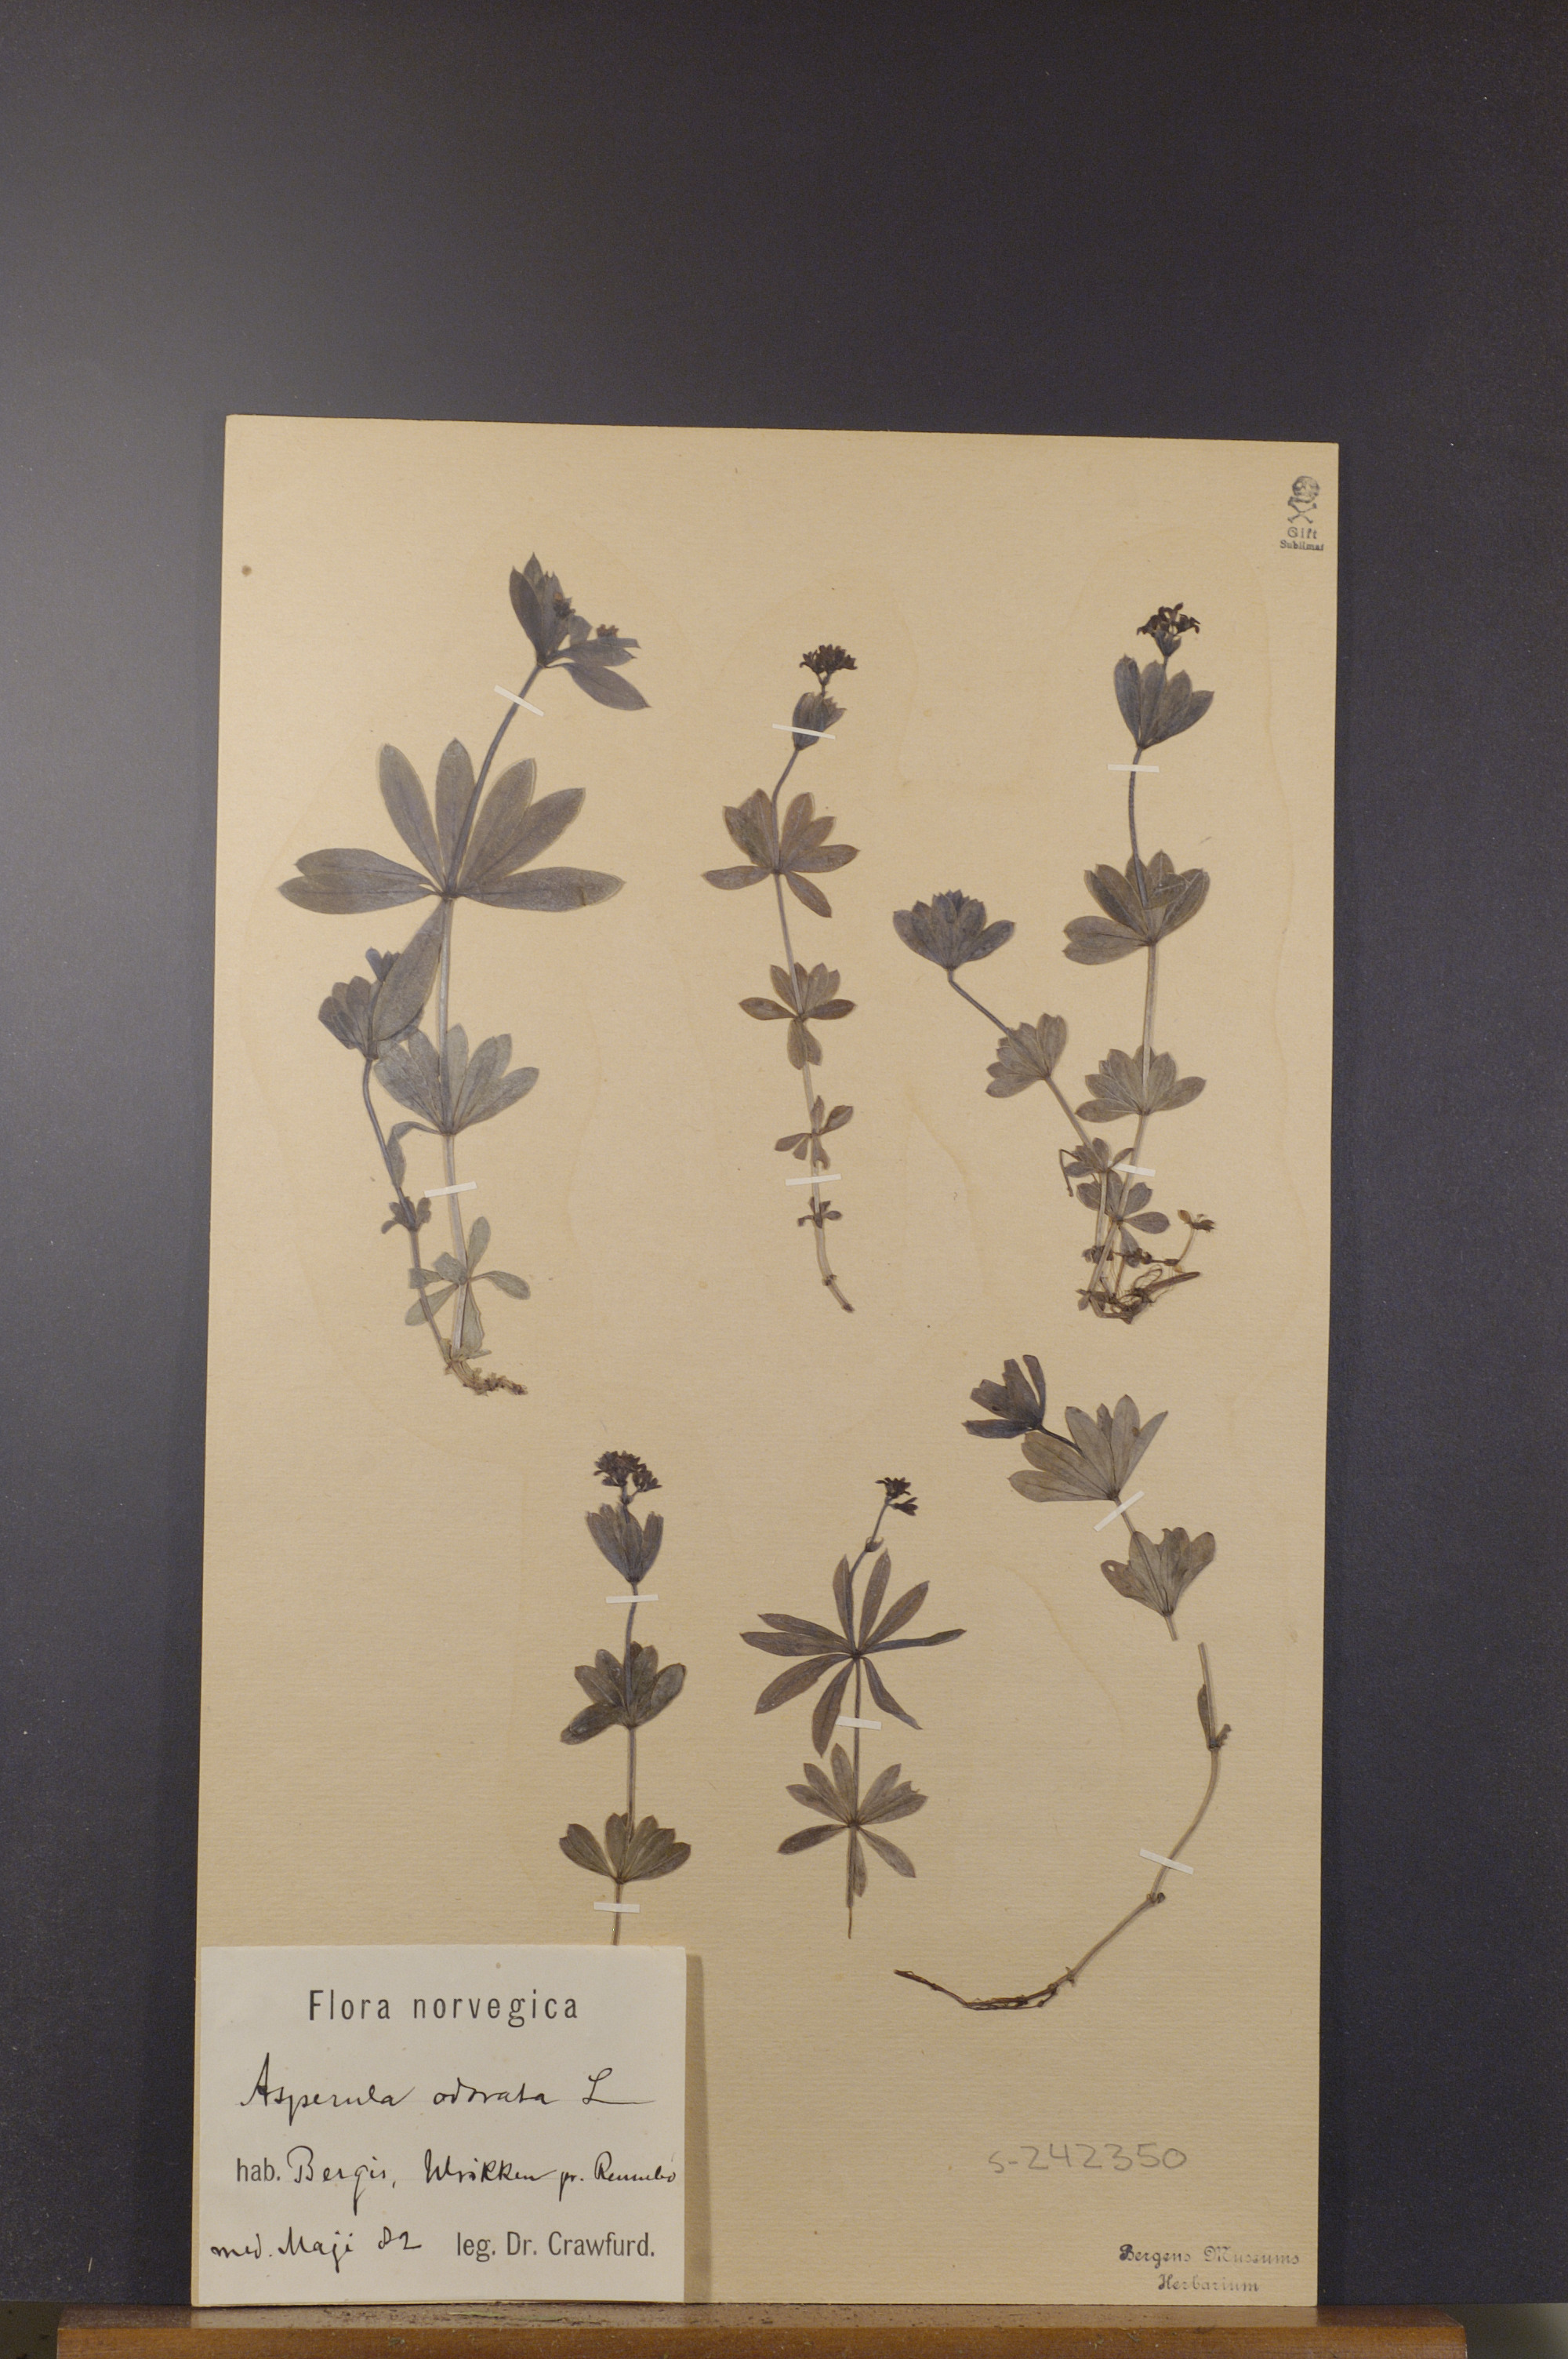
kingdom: Plantae
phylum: Tracheophyta
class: Magnoliopsida
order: Gentianales
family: Rubiaceae
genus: Galium
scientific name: Galium odoratum
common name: Sweet woodruff
